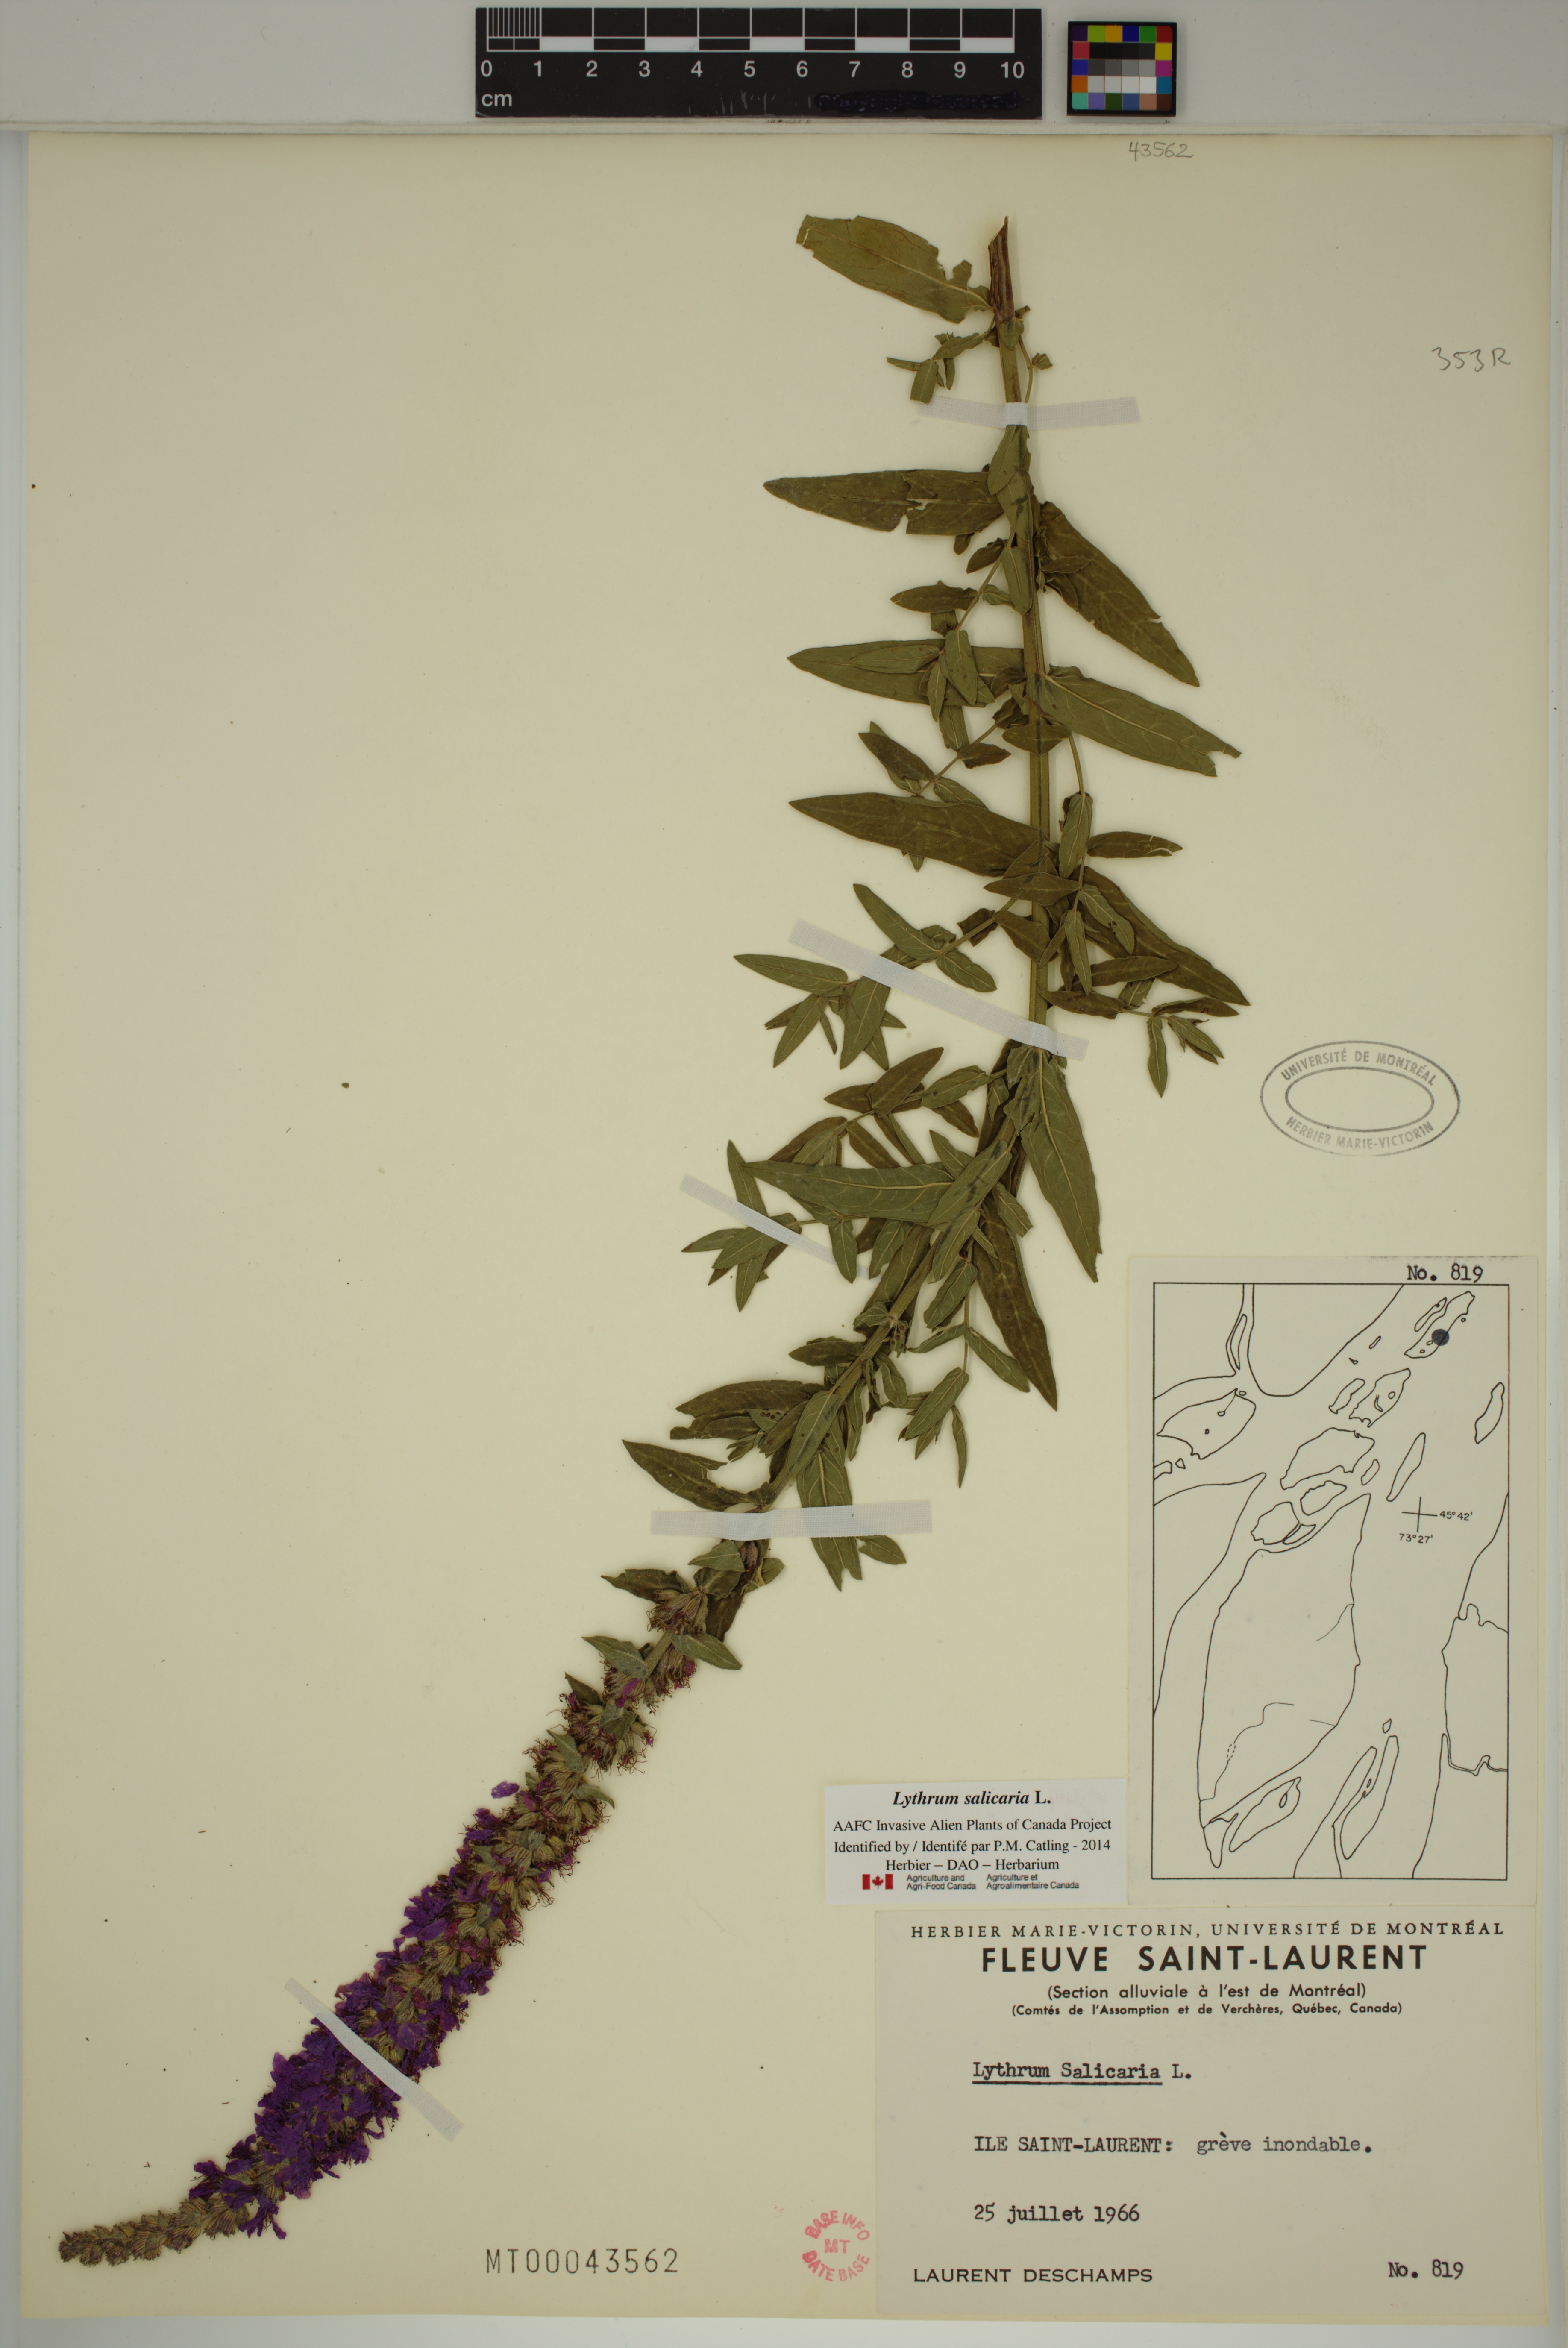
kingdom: Plantae
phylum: Tracheophyta
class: Magnoliopsida
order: Myrtales
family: Lythraceae
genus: Lythrum
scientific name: Lythrum salicaria
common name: Purple loosestrife
